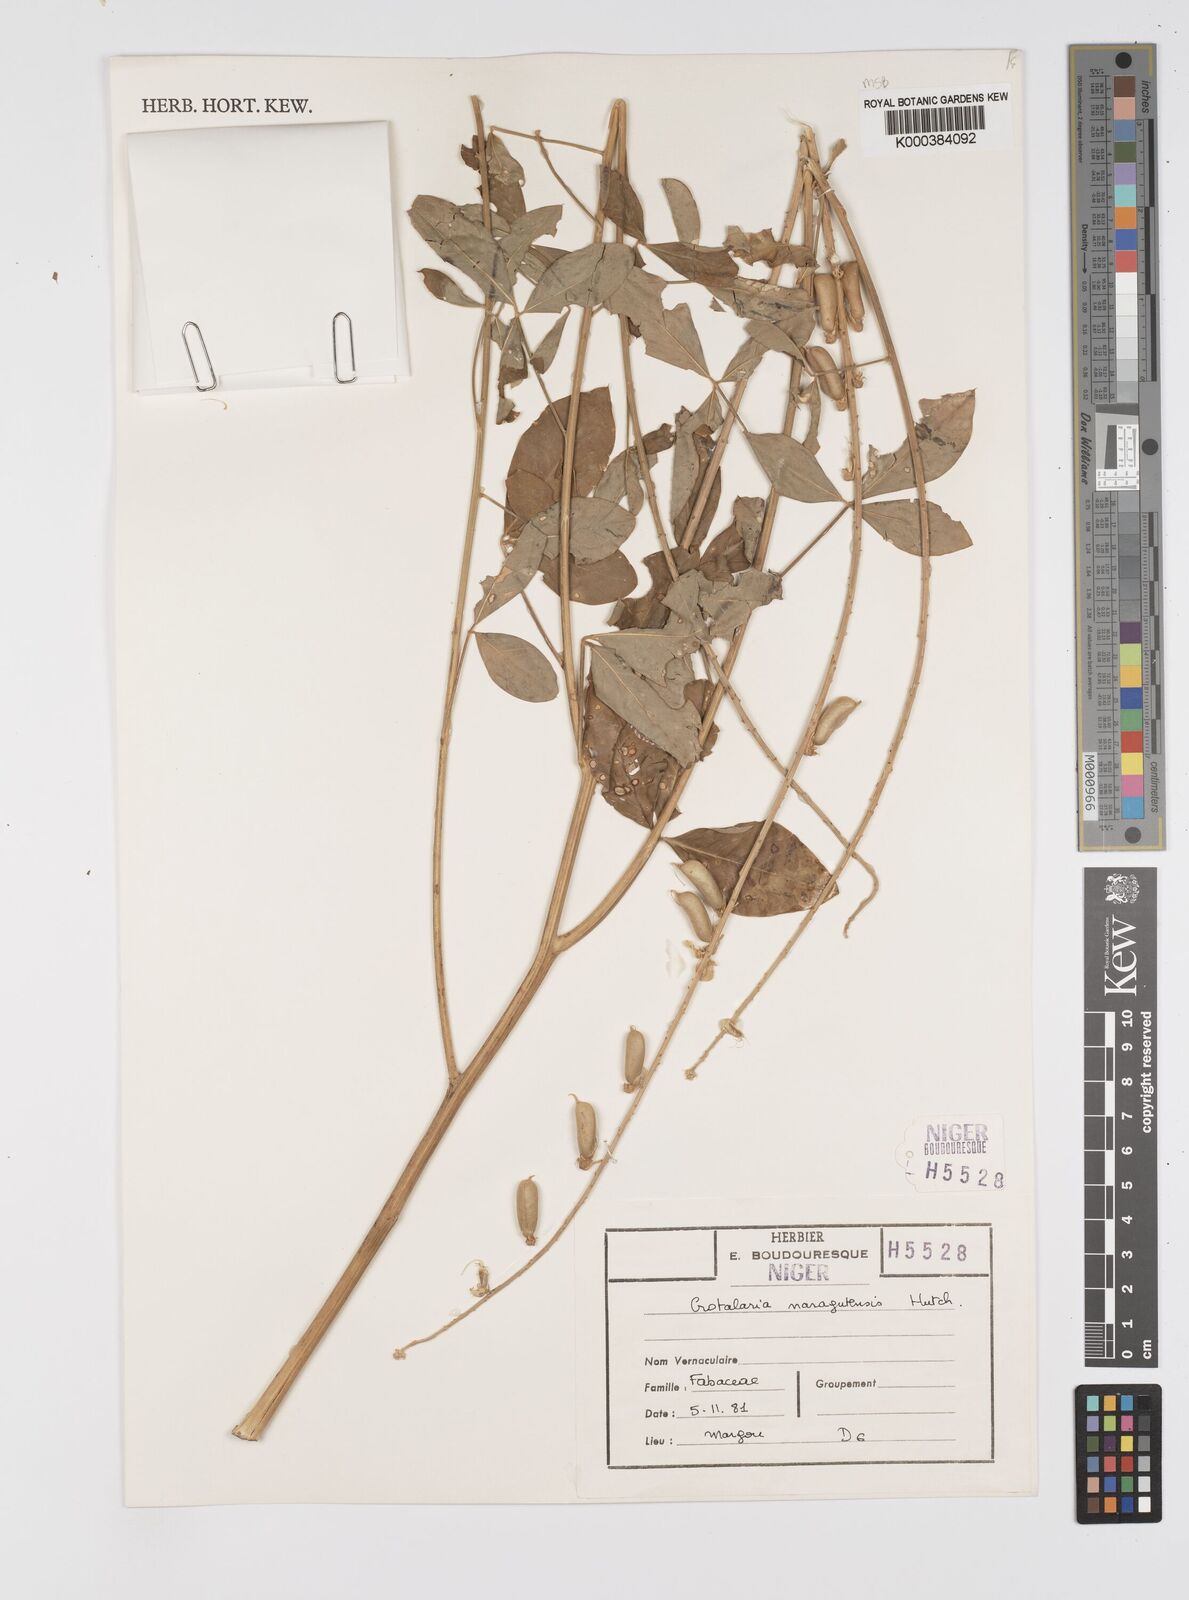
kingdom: Plantae
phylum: Tracheophyta
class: Magnoliopsida
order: Fabales
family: Fabaceae
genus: Crotalaria
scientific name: Crotalaria naragutensis
